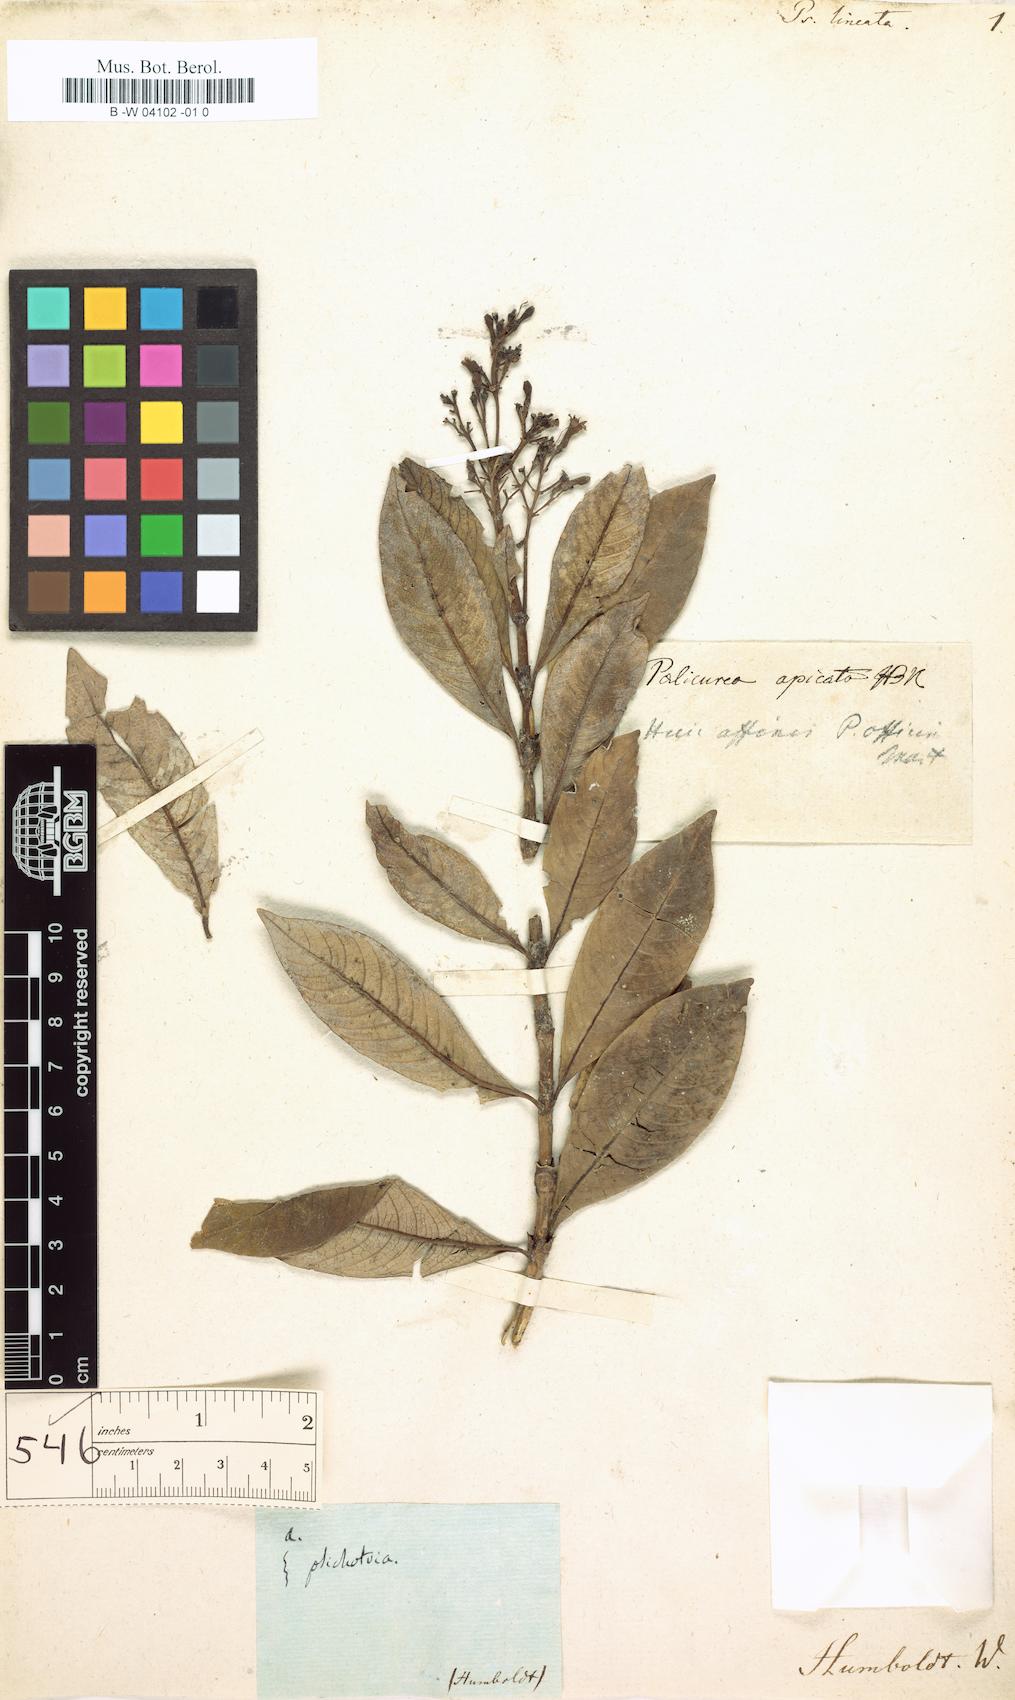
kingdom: Plantae
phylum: Tracheophyta
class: Magnoliopsida
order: Gentianales
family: Rubiaceae
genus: Palicourea
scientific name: Palicourea apicata
